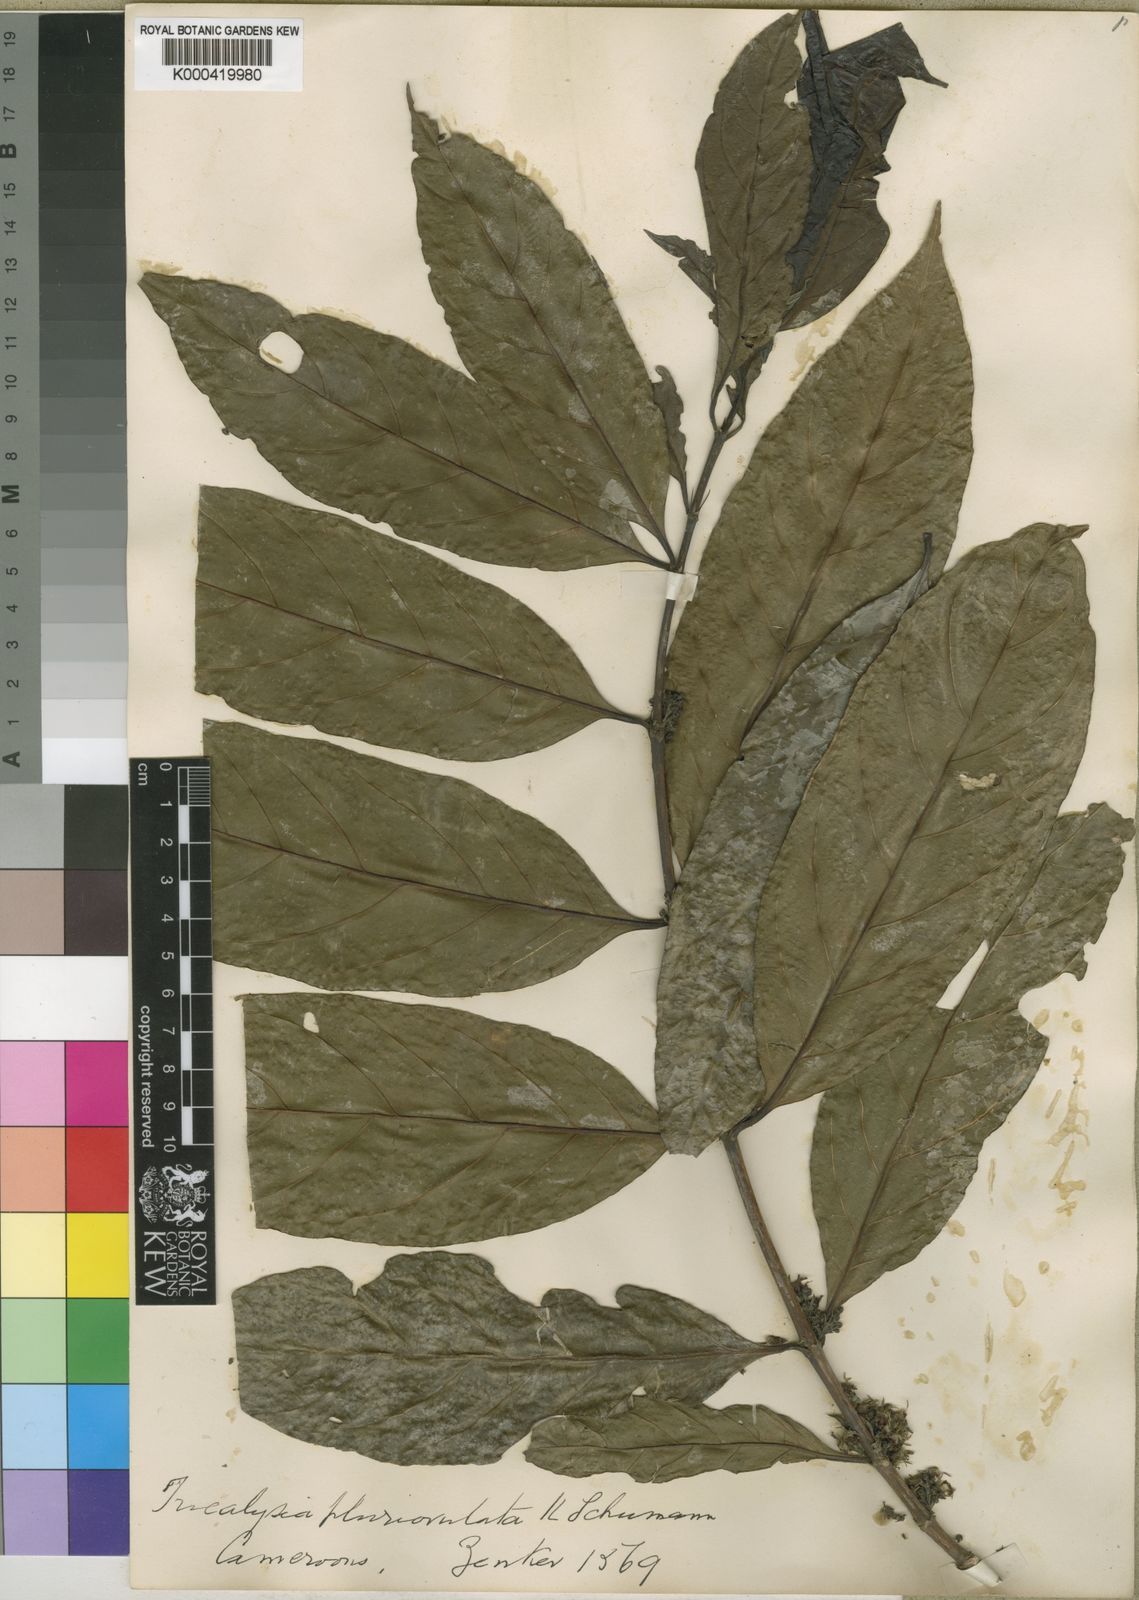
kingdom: Plantae
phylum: Tracheophyta
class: Magnoliopsida
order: Gentianales
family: Rubiaceae
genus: Empogona
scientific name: Empogona macrophylla
